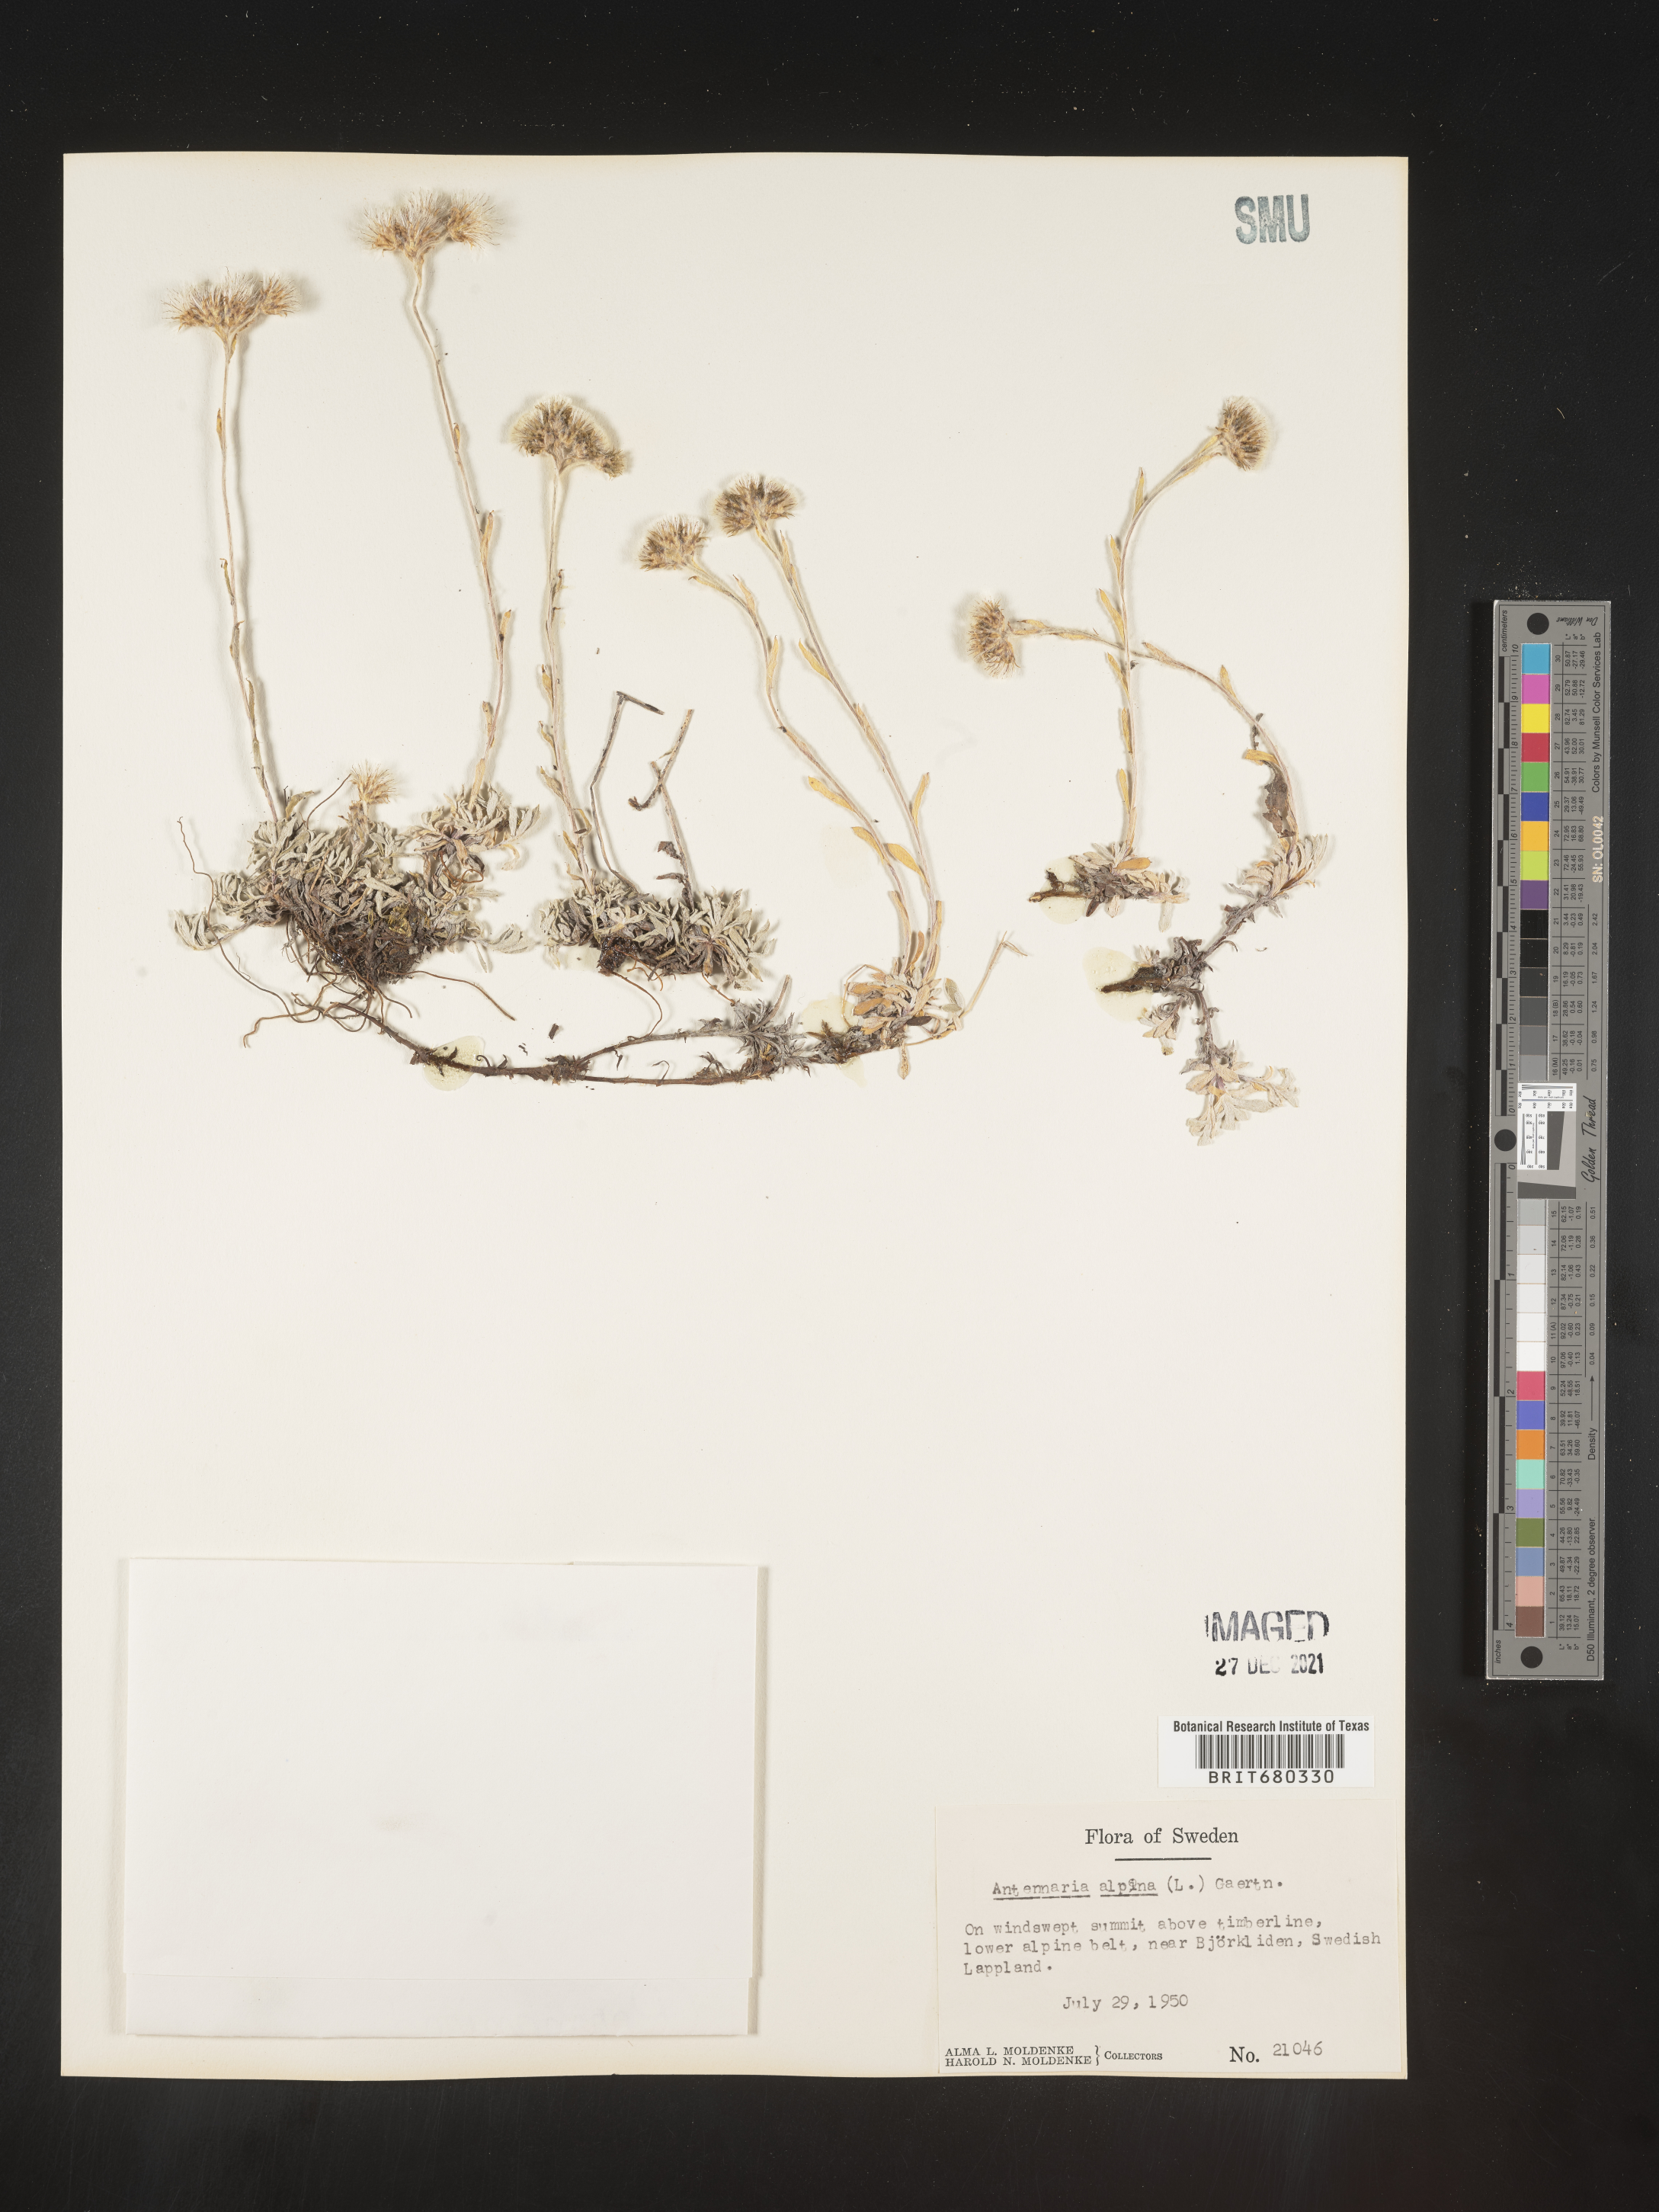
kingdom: Plantae
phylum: Tracheophyta
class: Magnoliopsida
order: Asterales
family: Asteraceae
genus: Antennaria
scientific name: Antennaria
